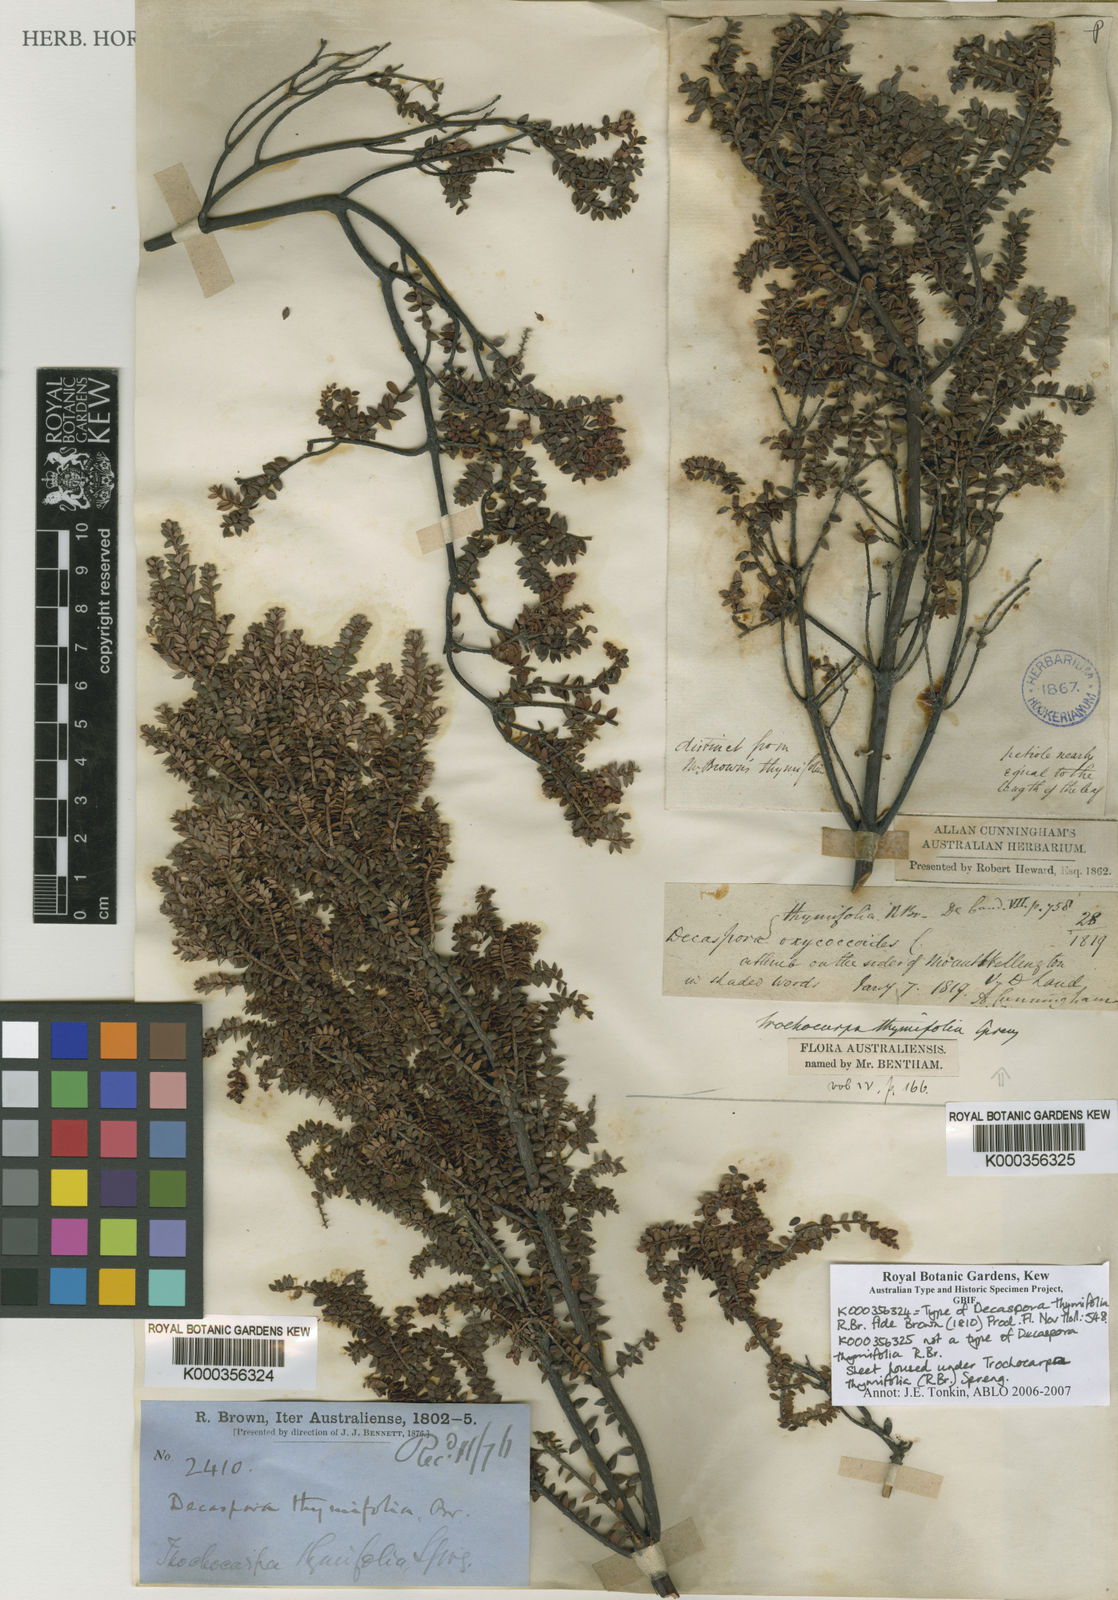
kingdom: Plantae
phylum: Tracheophyta
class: Magnoliopsida
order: Ericales
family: Ericaceae
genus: Trochocarpa
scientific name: Trochocarpa thymifolia
